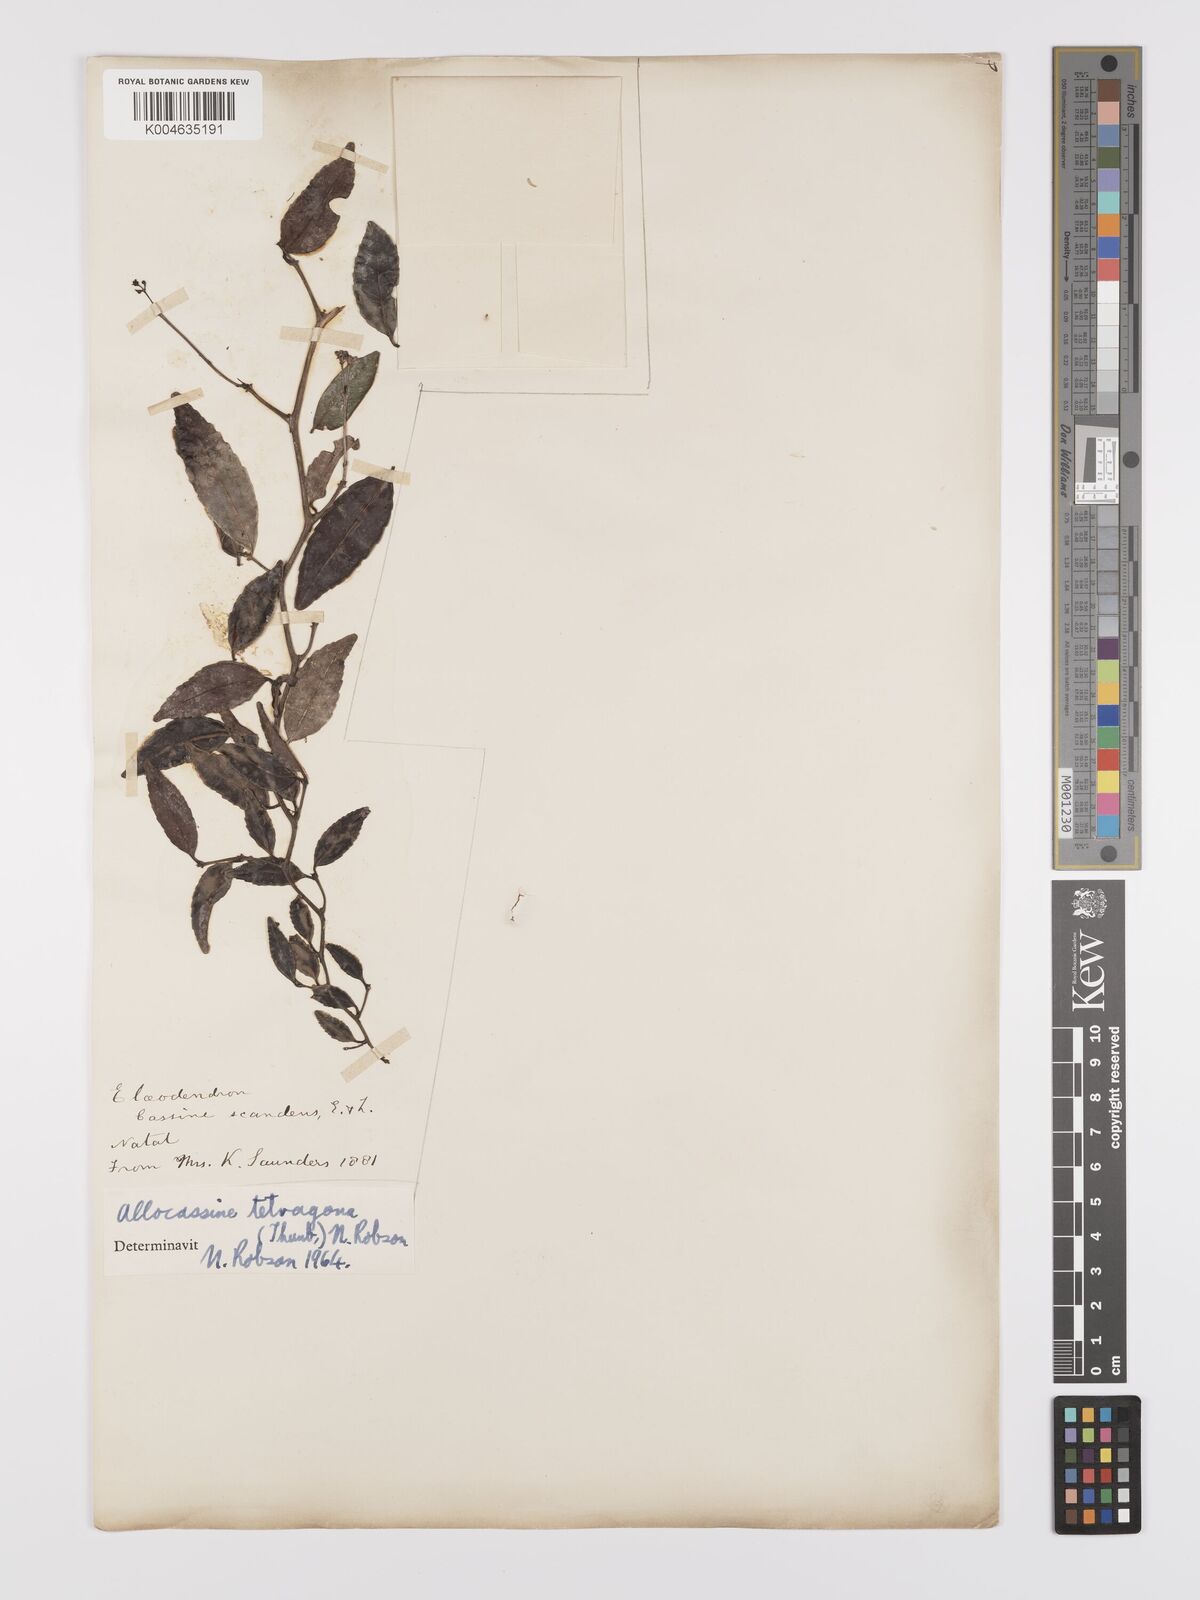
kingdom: Plantae
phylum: Tracheophyta
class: Magnoliopsida
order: Celastrales
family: Celastraceae
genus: Lauridia
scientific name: Lauridia tetragona
